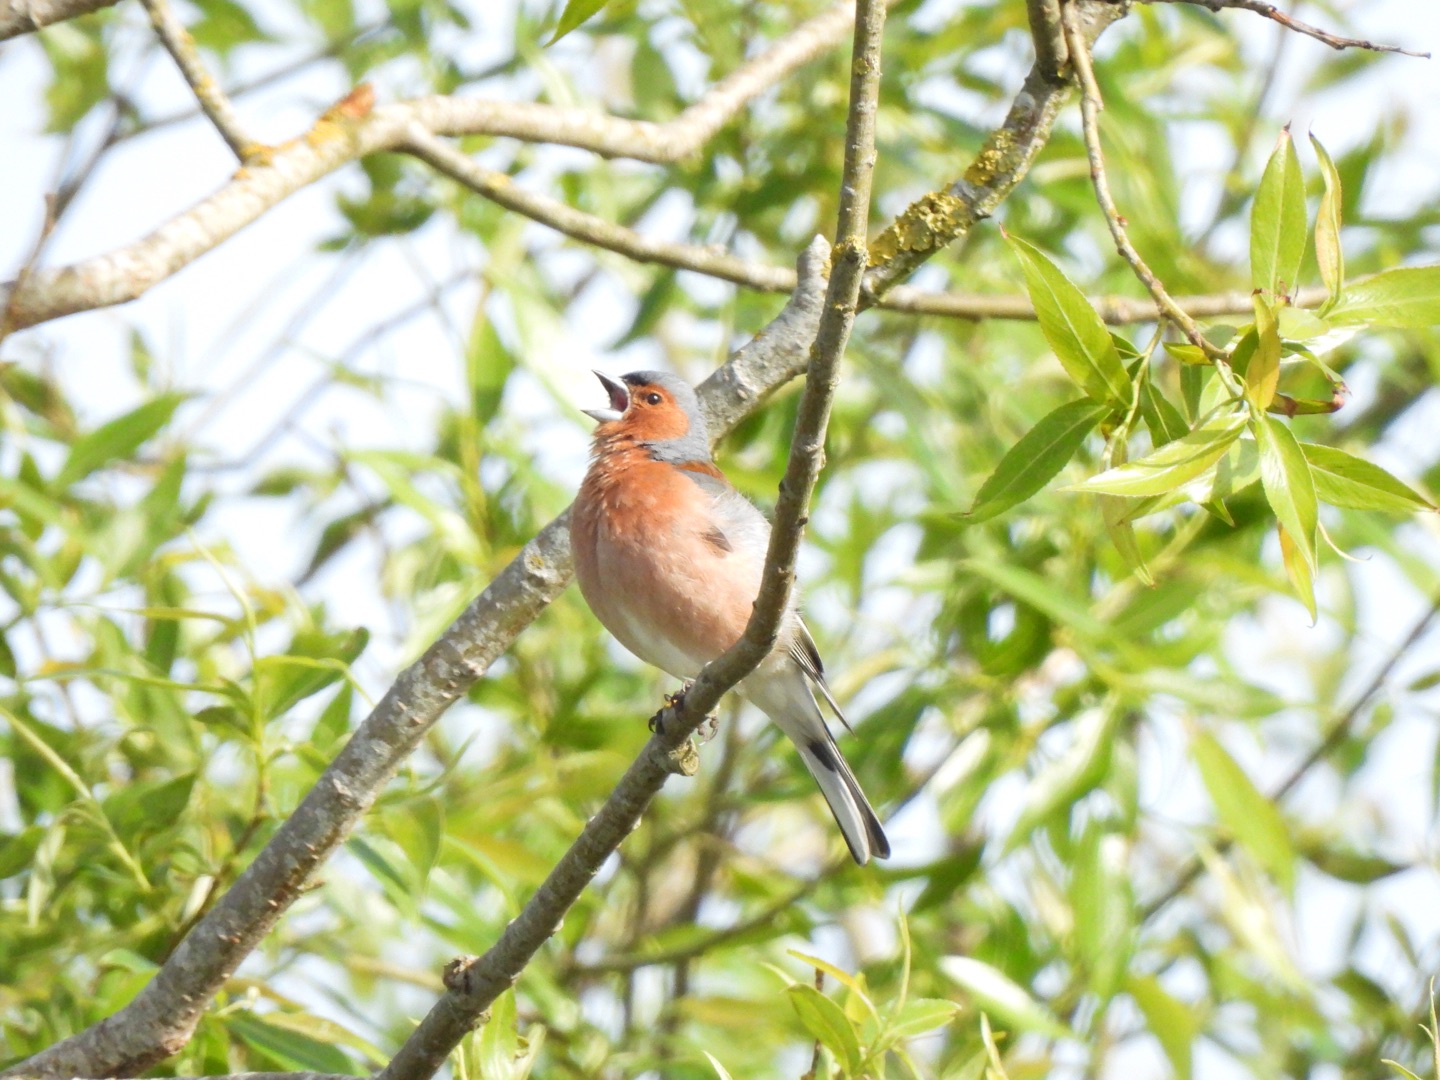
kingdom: Animalia
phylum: Chordata
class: Aves
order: Passeriformes
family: Fringillidae
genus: Fringilla
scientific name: Fringilla coelebs
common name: Bogfinke
